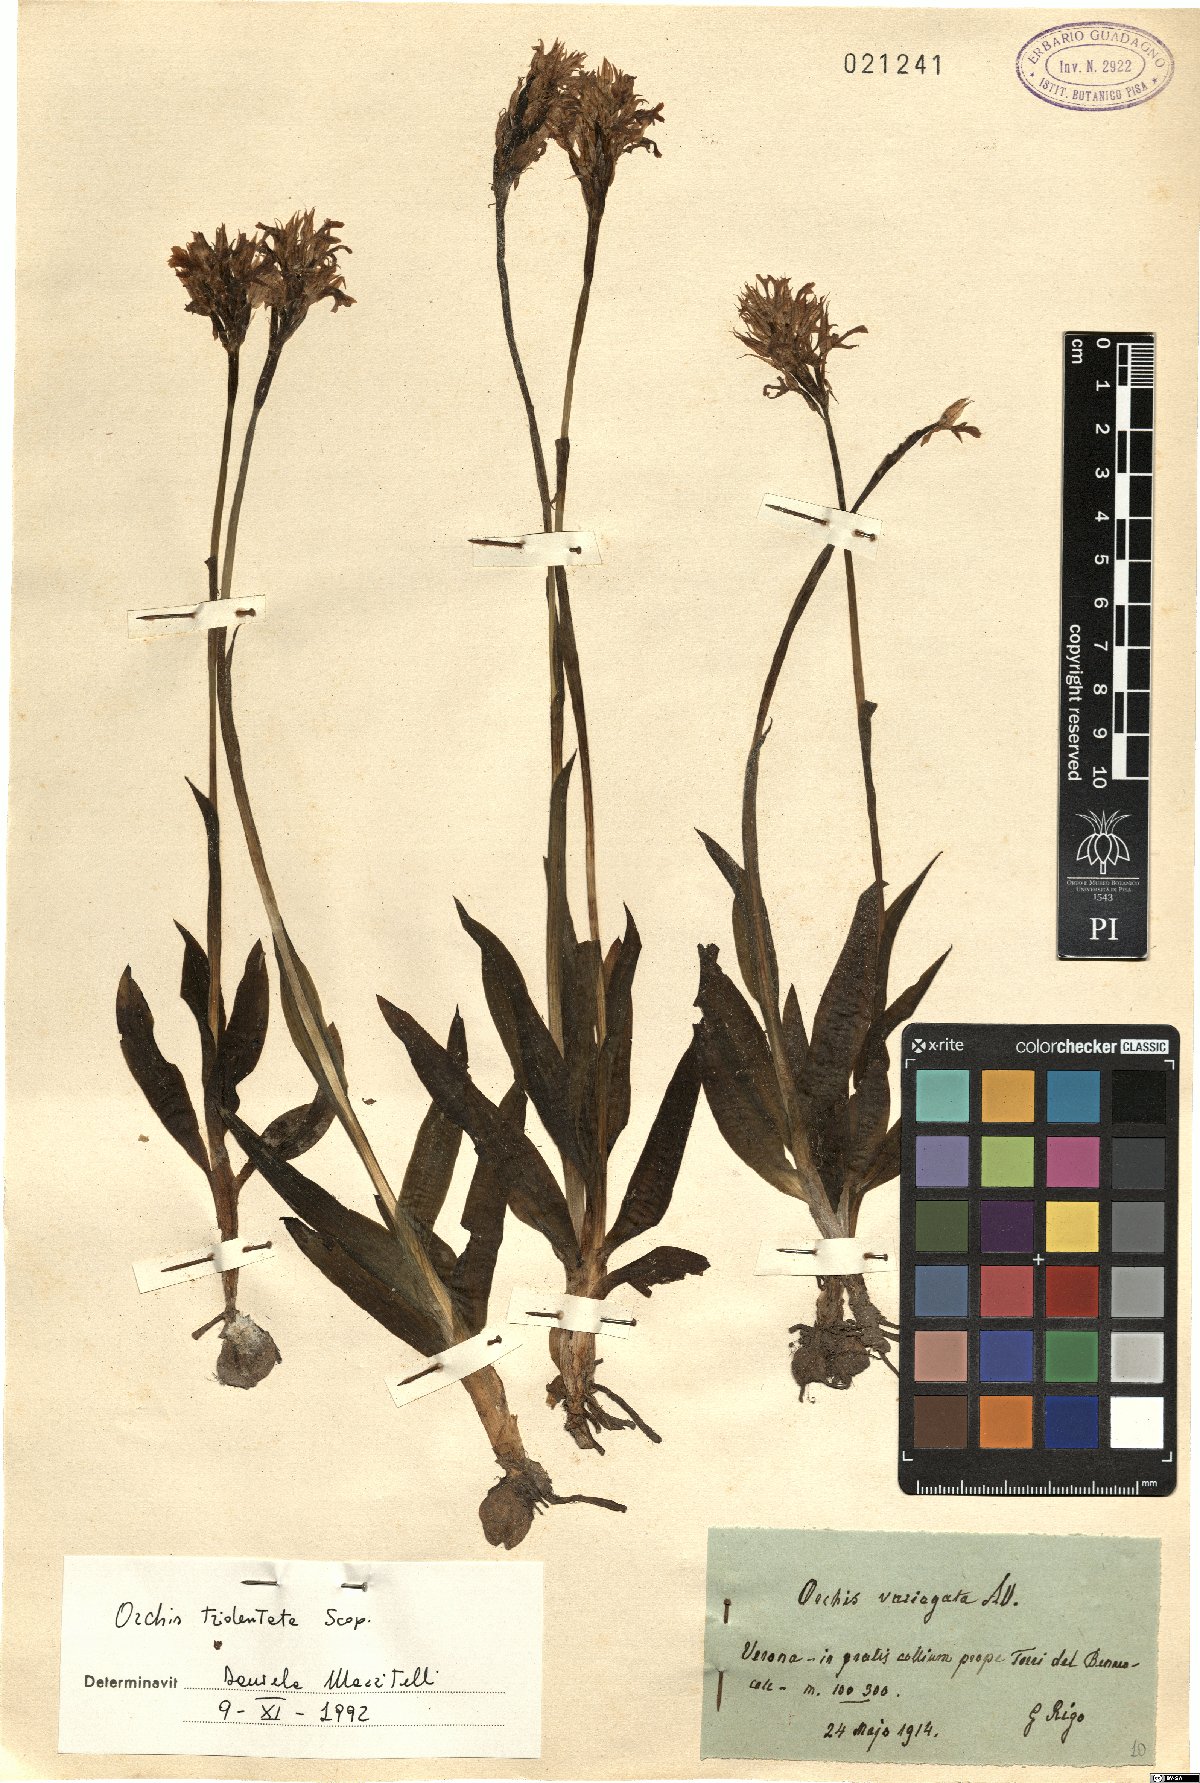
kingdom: Plantae
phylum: Tracheophyta
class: Liliopsida
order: Asparagales
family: Orchidaceae
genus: Neotinea
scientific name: Neotinea tridentata
